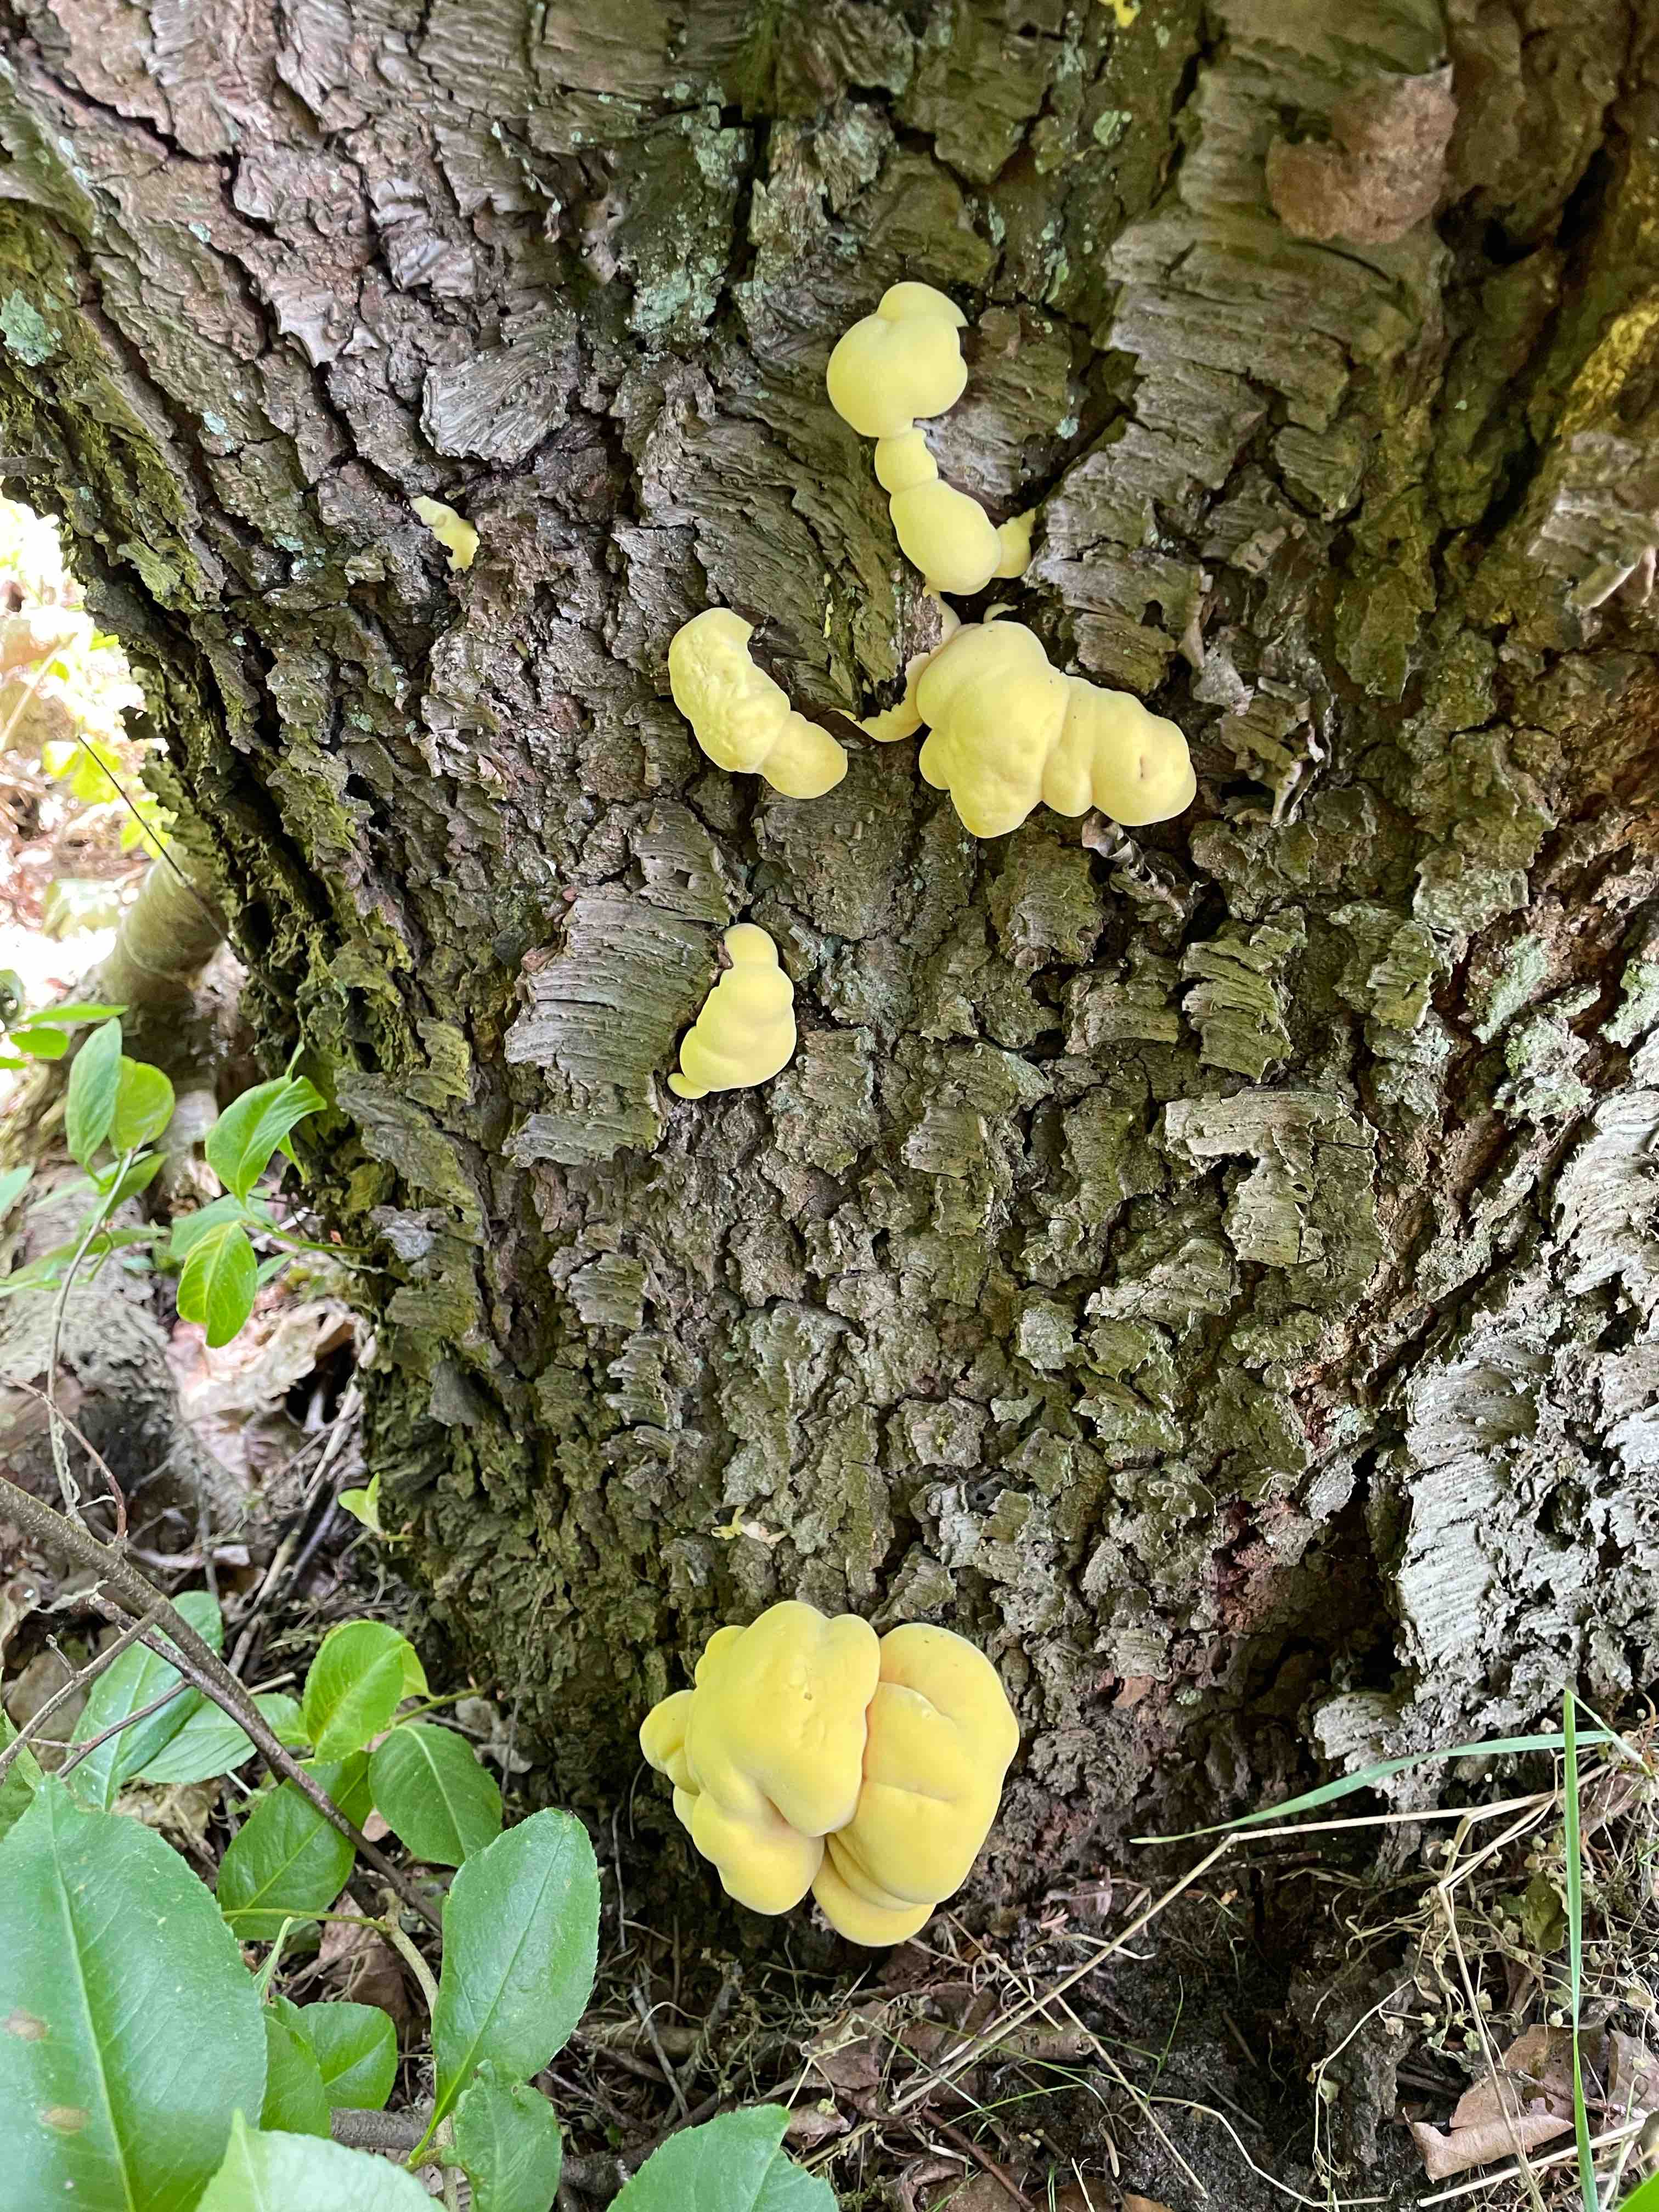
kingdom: Fungi
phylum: Basidiomycota
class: Agaricomycetes
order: Polyporales
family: Laetiporaceae
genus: Laetiporus
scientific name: Laetiporus sulphureus
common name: svovlporesvamp
